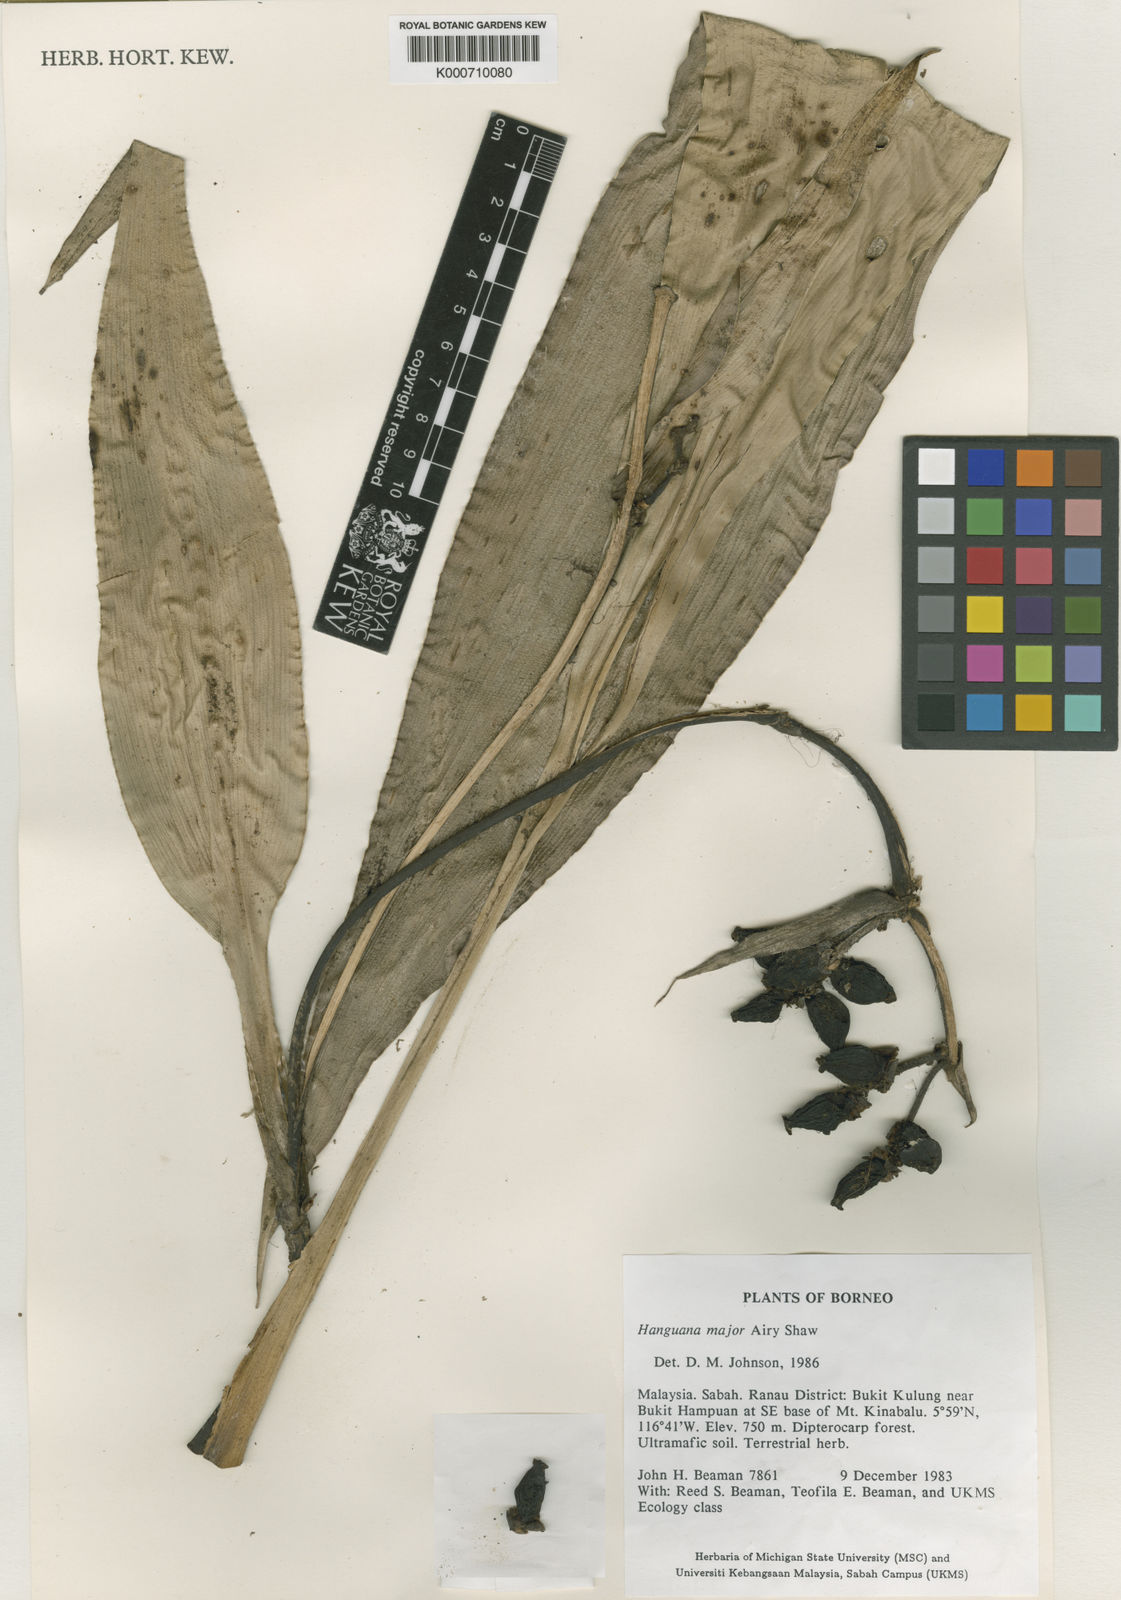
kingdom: Plantae
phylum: Tracheophyta
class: Liliopsida
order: Commelinales
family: Hanguanaceae
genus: Hanguana
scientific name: Hanguana major
